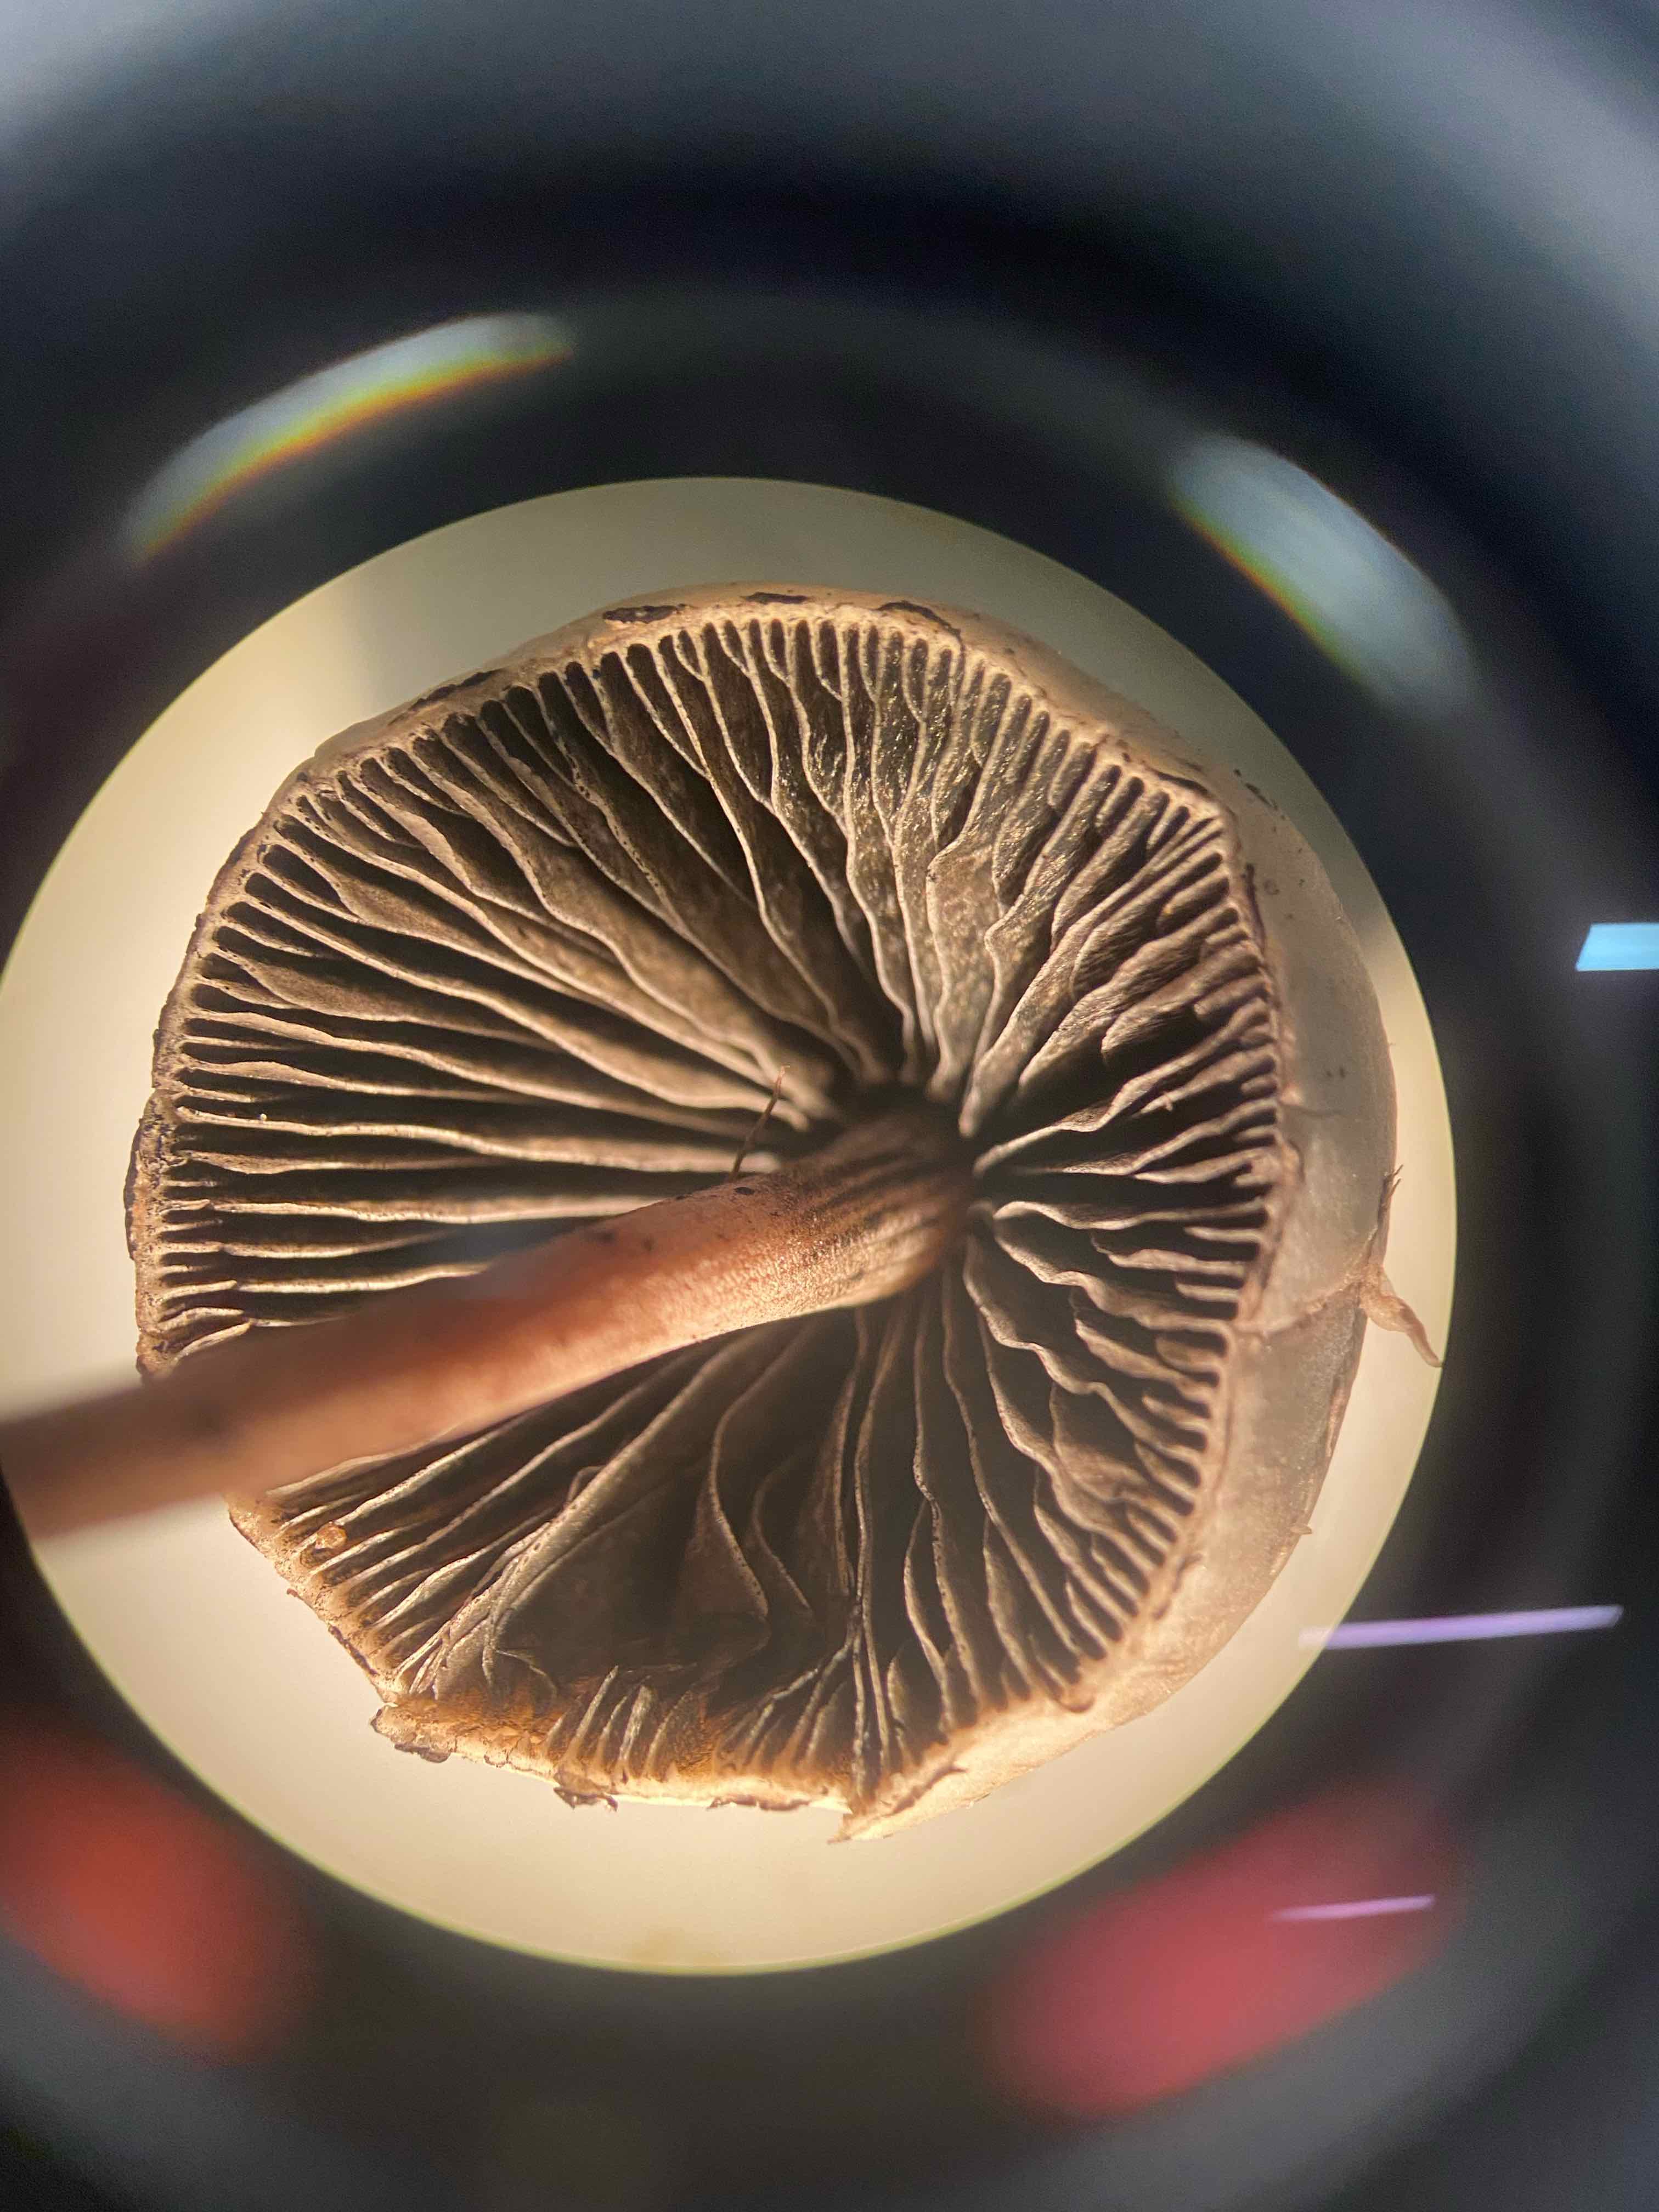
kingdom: Fungi
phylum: Basidiomycota
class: Agaricomycetes
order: Agaricales
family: Bolbitiaceae
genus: Panaeolus
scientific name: Panaeolus papilionaceus
